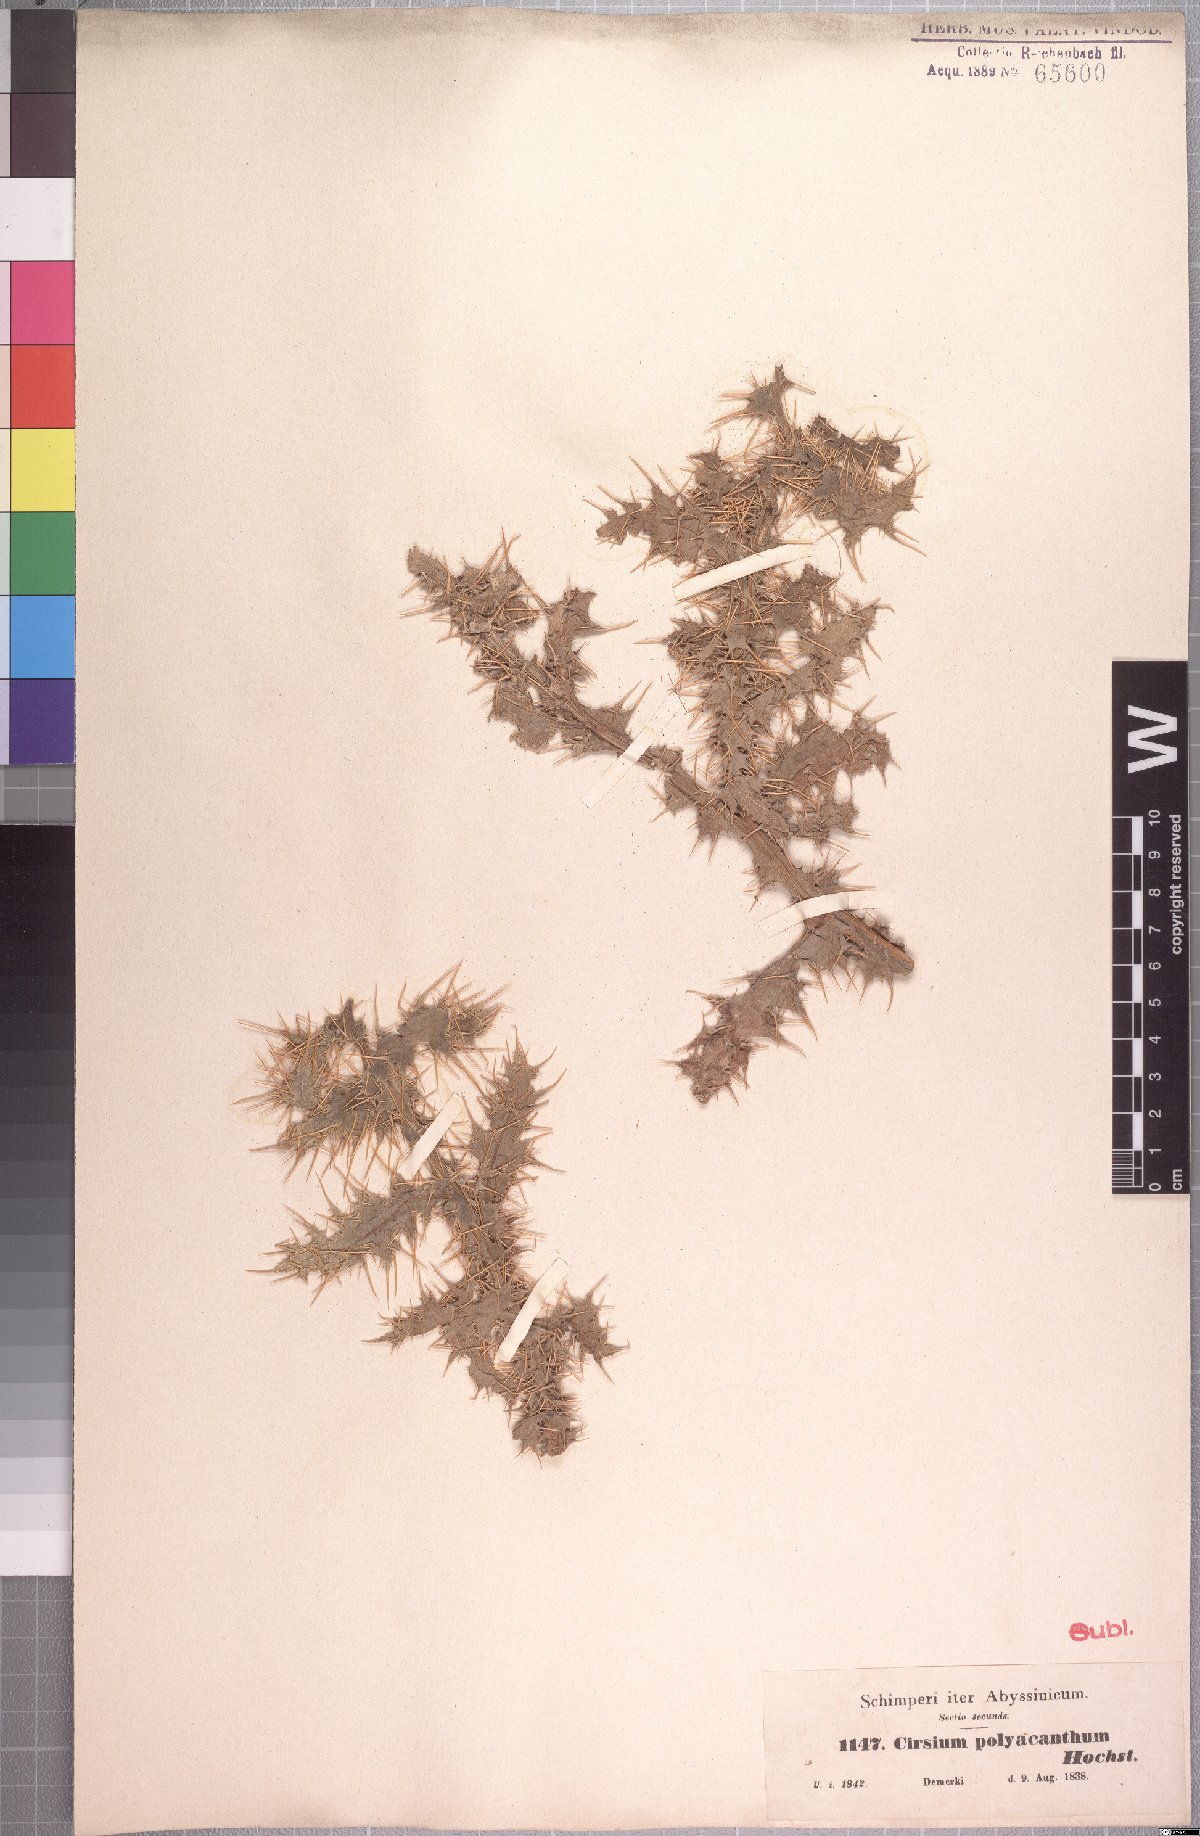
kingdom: Plantae
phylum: Tracheophyta
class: Magnoliopsida
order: Asterales
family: Asteraceae
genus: Cirsium
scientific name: Cirsium straminispinum
